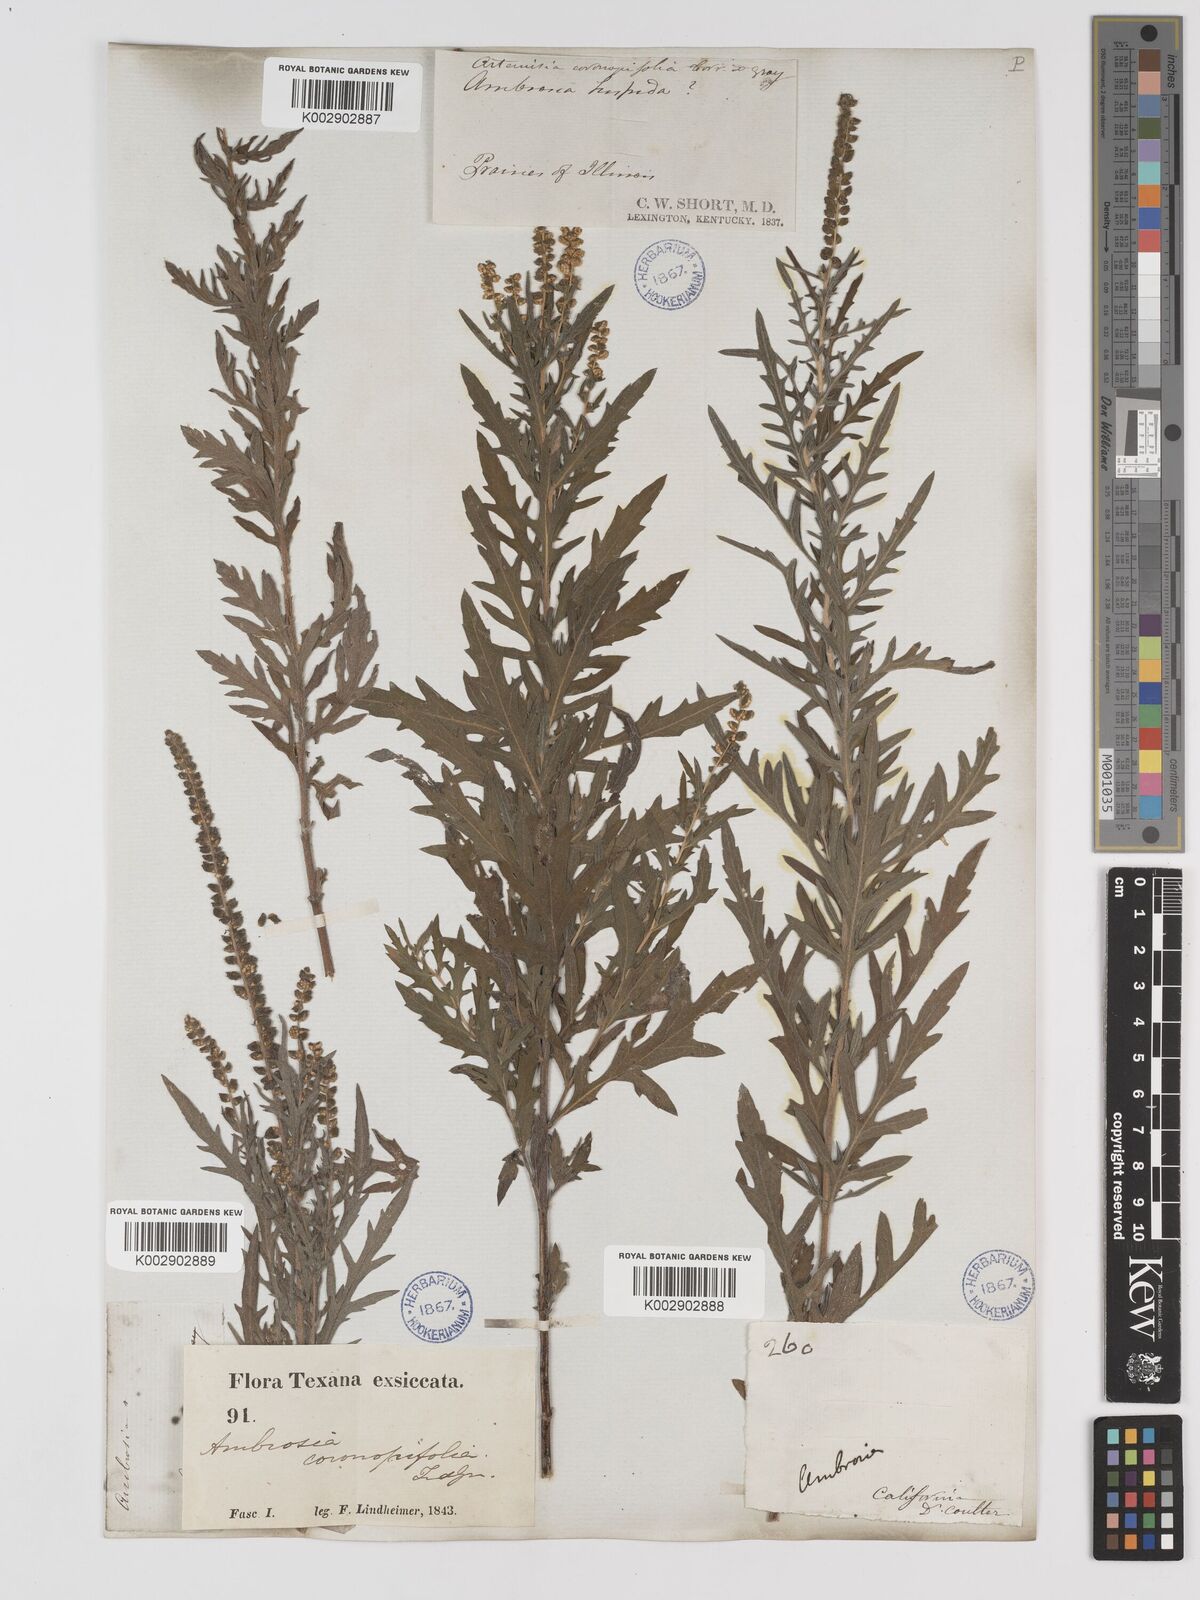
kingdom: Plantae
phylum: Tracheophyta
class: Magnoliopsida
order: Asterales
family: Asteraceae
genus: Ambrosia
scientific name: Ambrosia psilostachya
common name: Perennial ragweed
